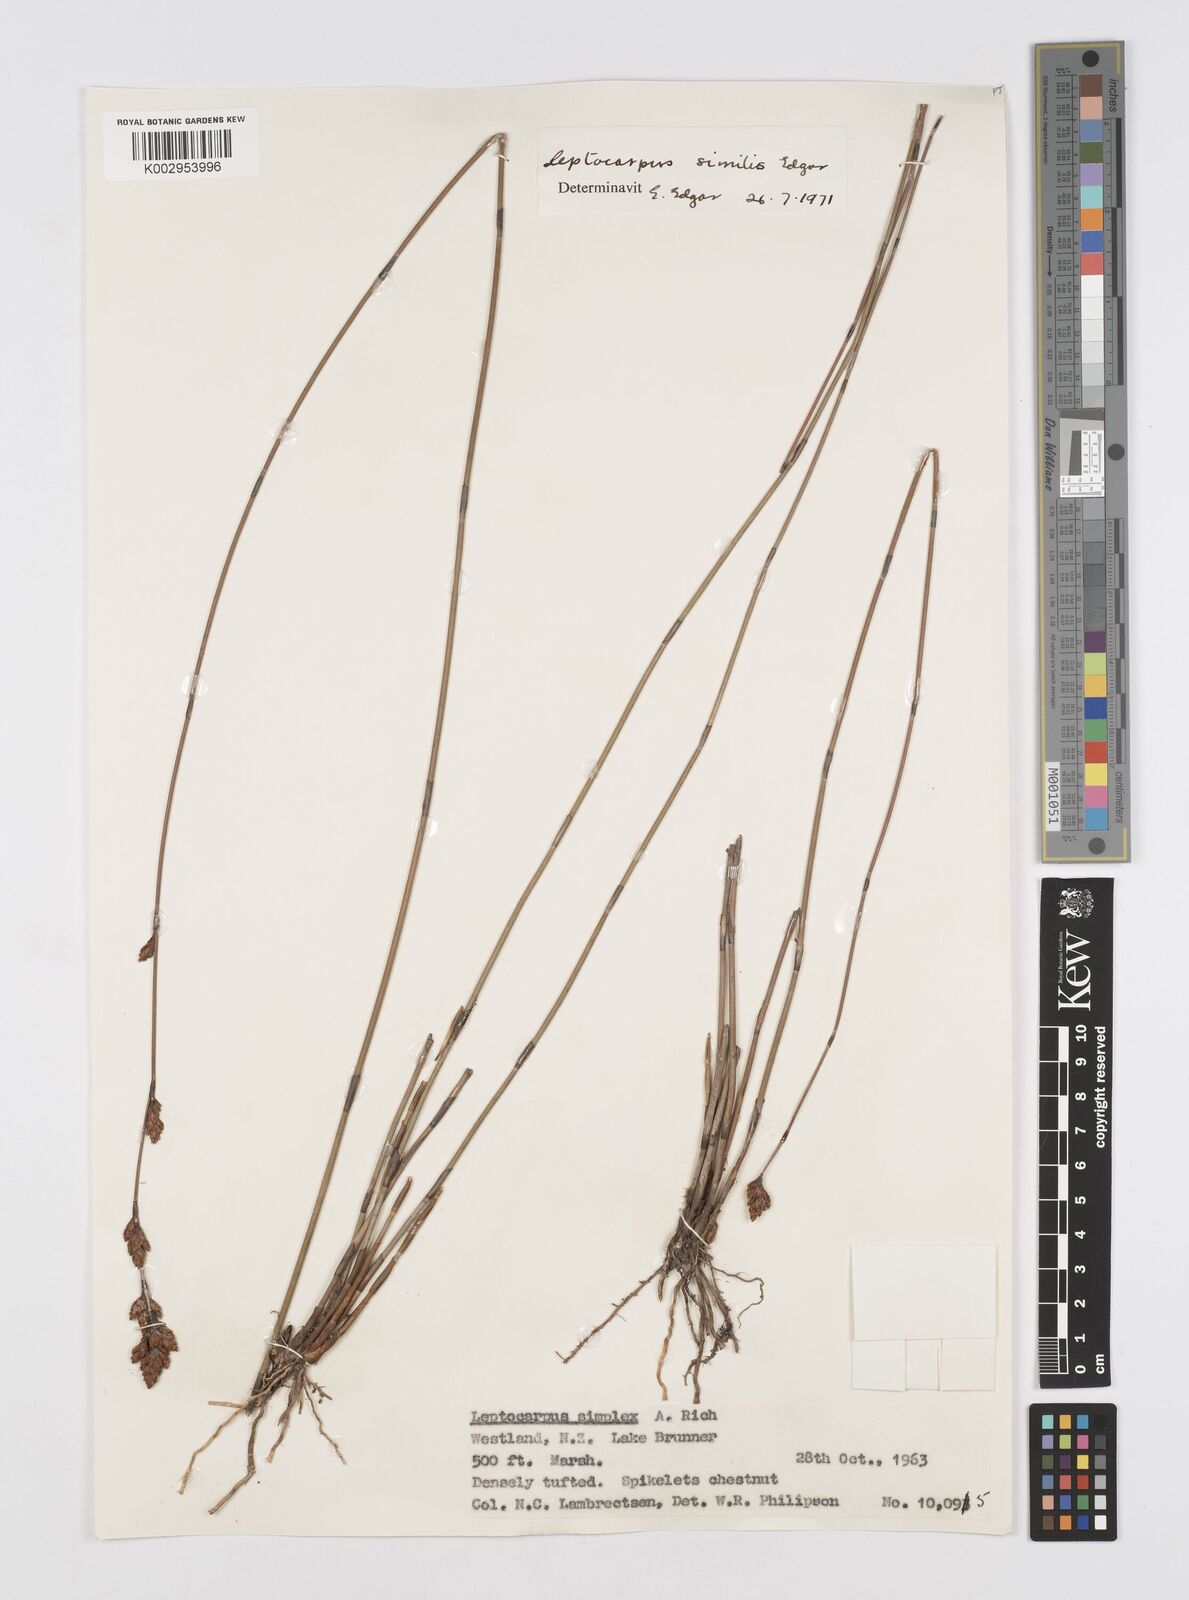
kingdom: Plantae
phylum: Tracheophyta
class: Liliopsida
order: Poales
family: Restionaceae
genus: Apodasmia
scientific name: Apodasmia similis
